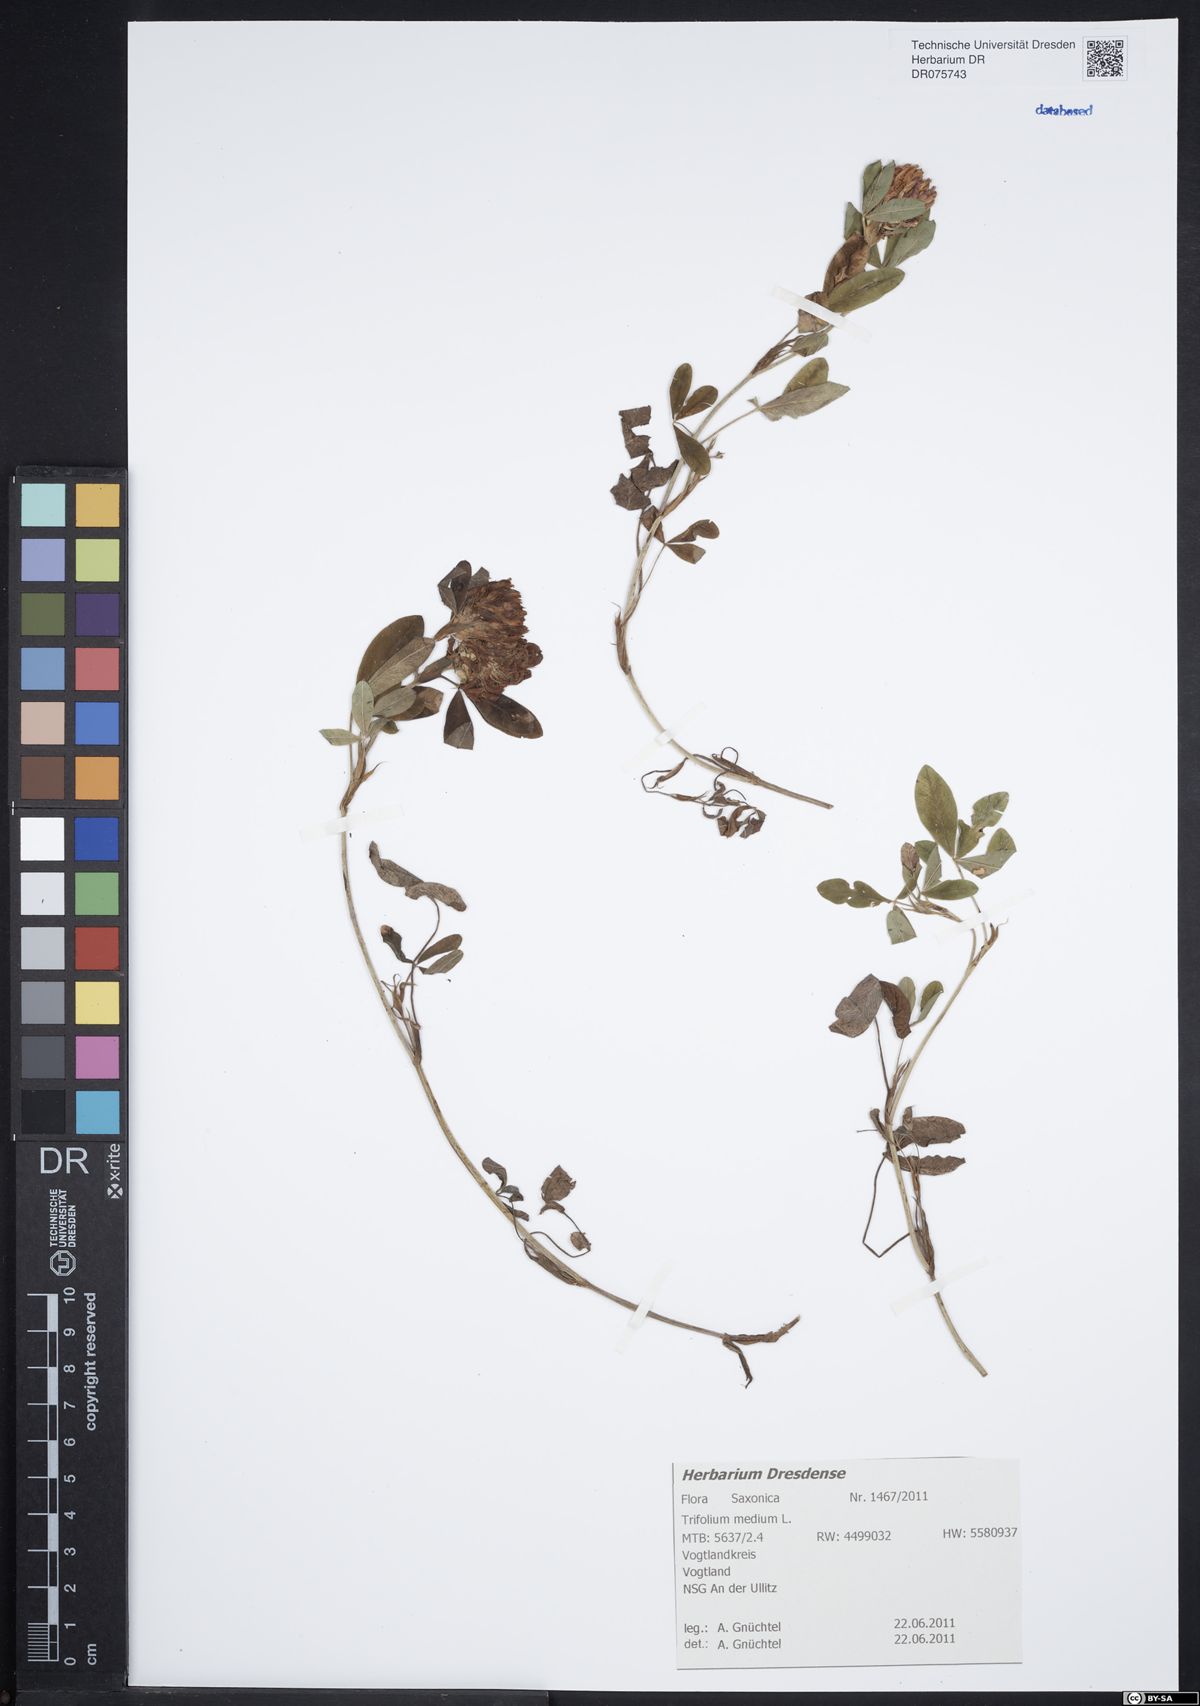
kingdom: Plantae
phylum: Tracheophyta
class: Magnoliopsida
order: Fabales
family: Fabaceae
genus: Trifolium
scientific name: Trifolium medium
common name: Zigzag clover
